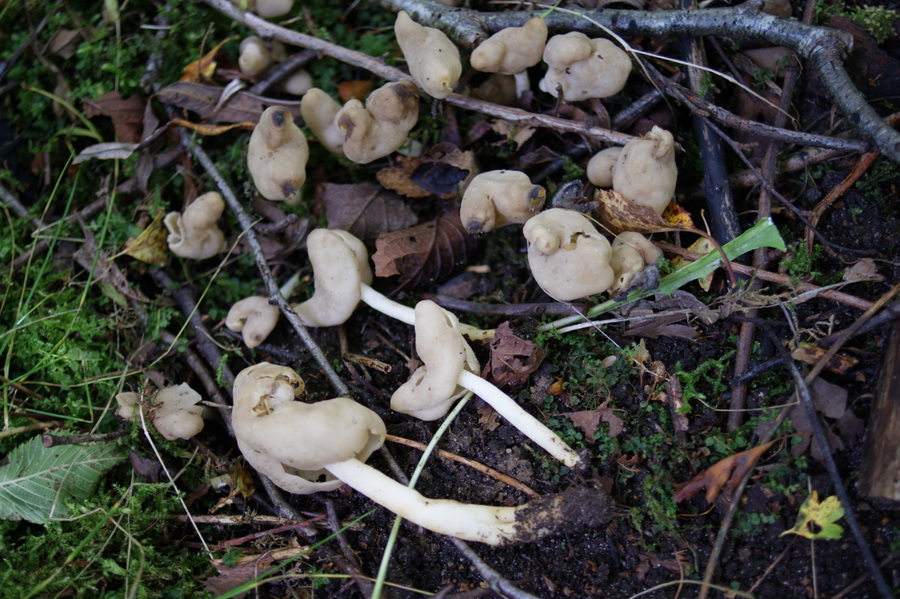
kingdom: Fungi
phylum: Ascomycota
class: Pezizomycetes
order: Pezizales
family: Helvellaceae
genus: Helvella
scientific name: Helvella elastica
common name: elastik-foldhat
